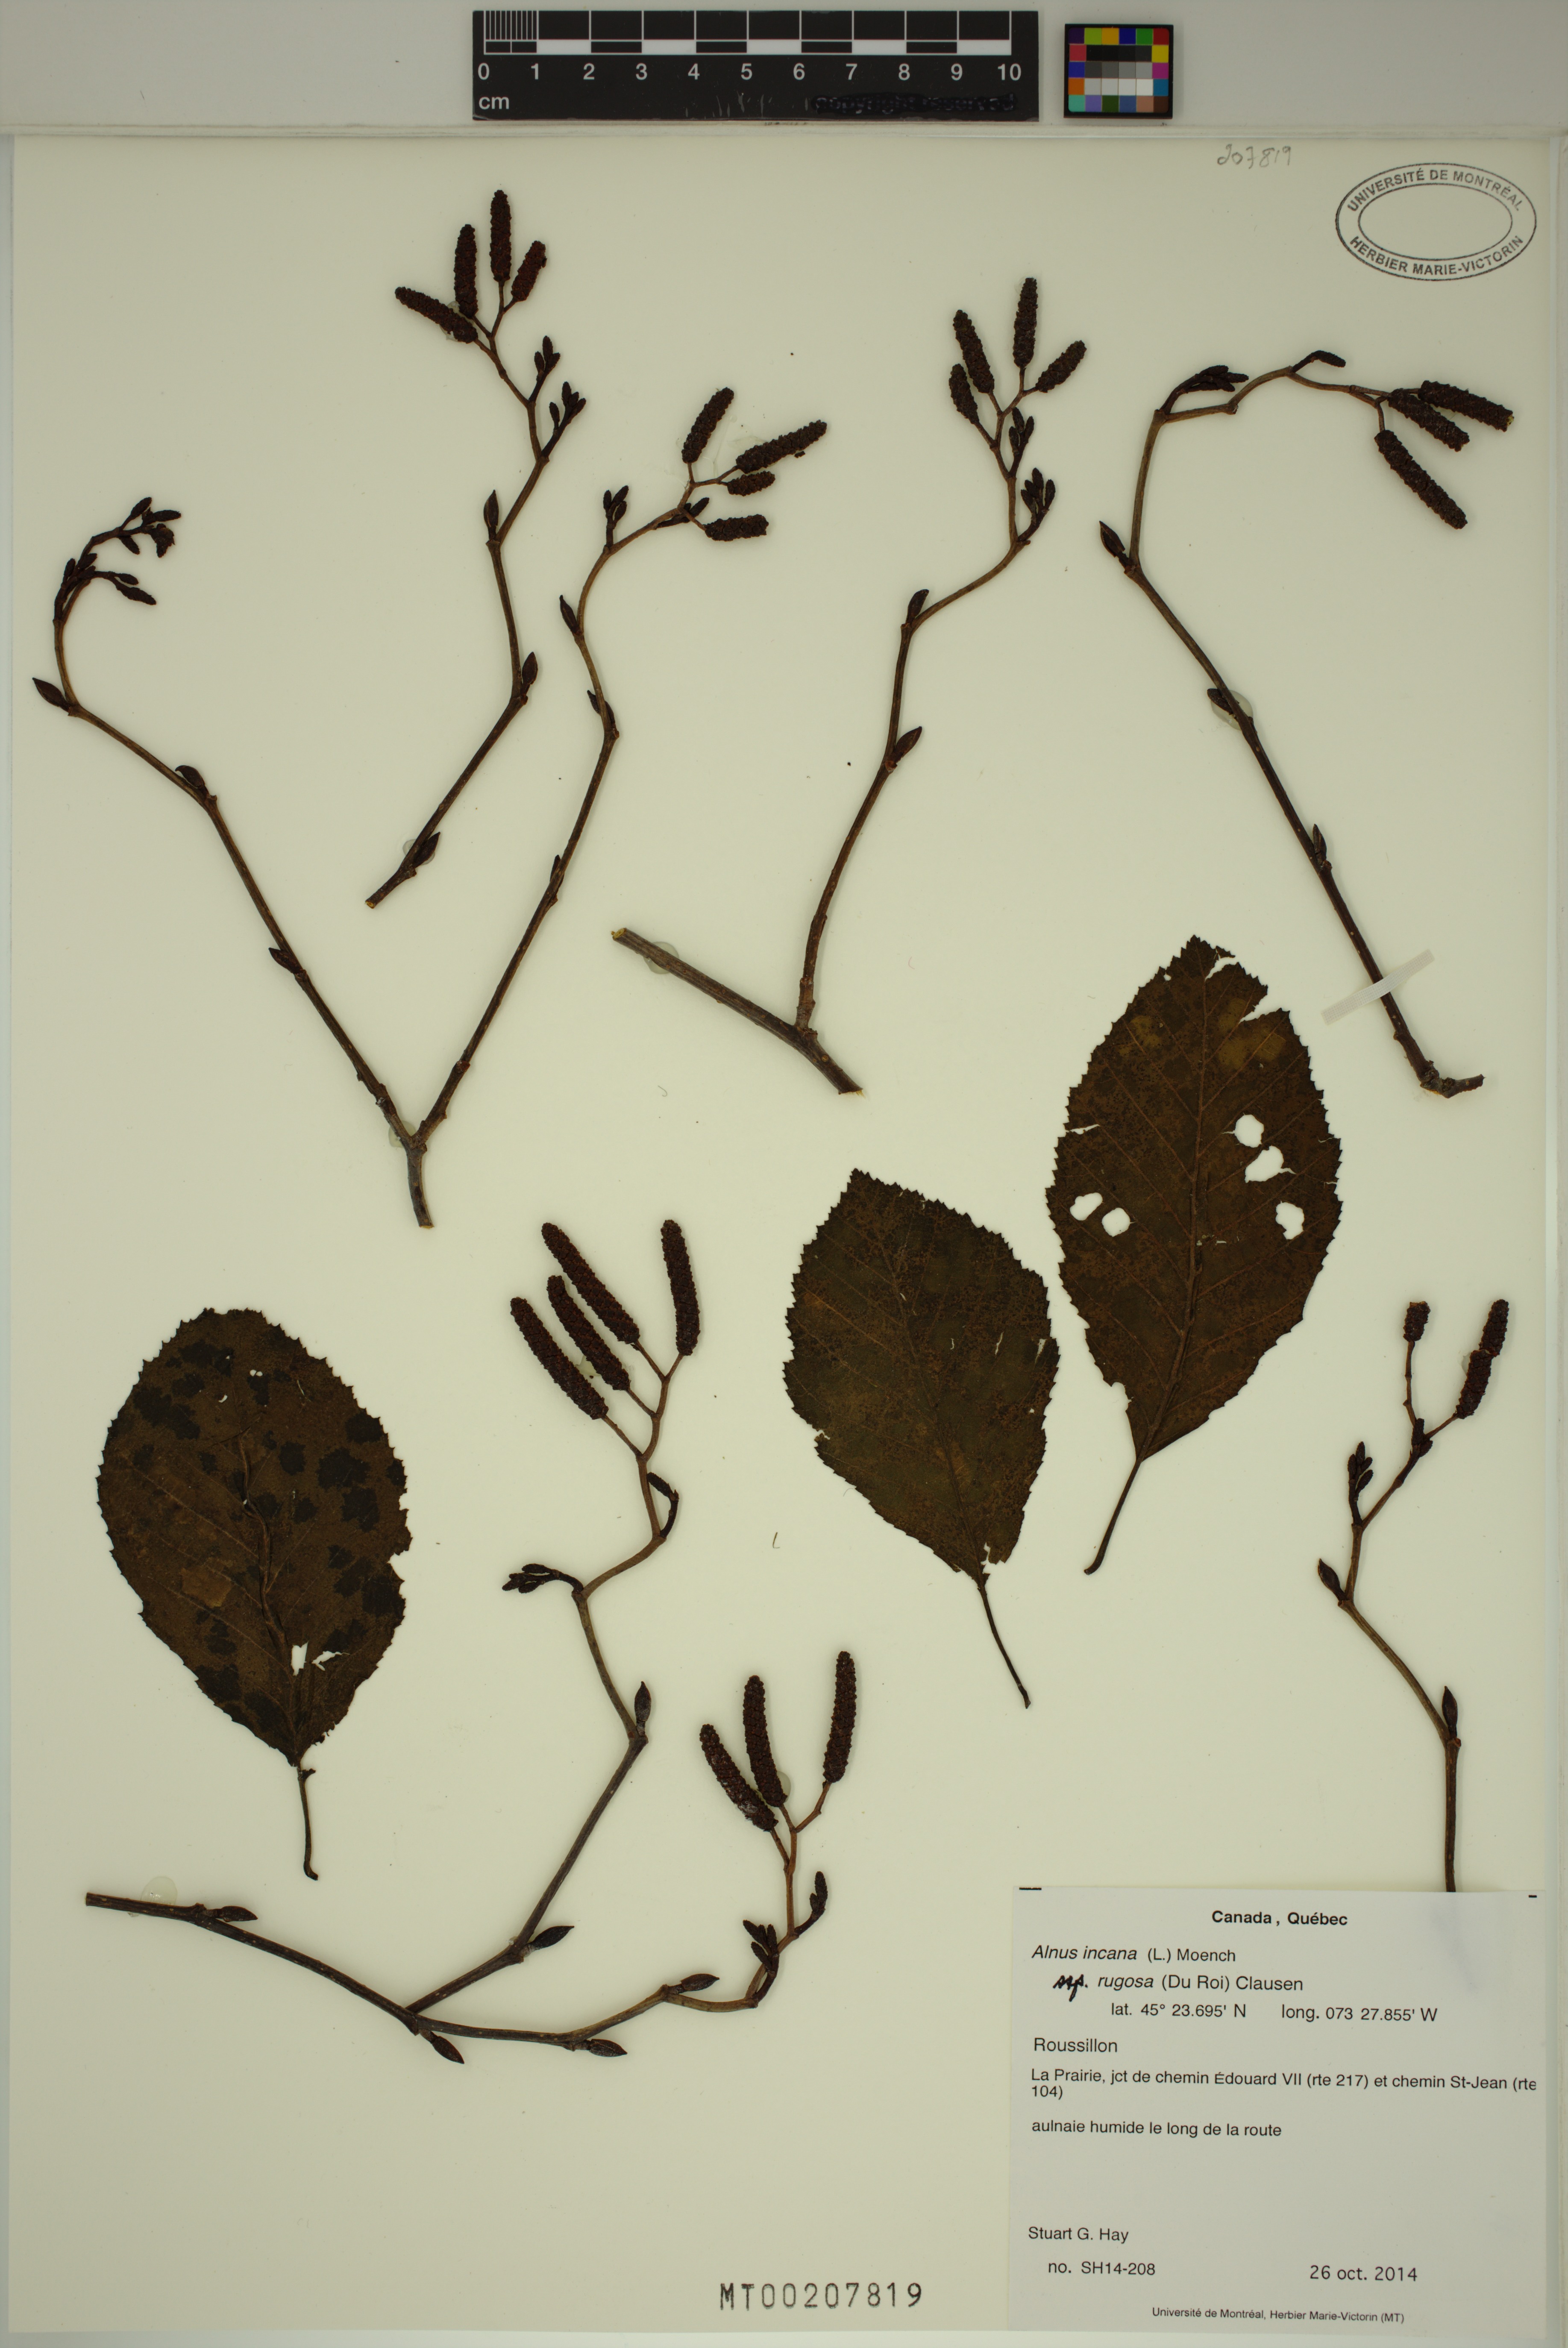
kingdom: Plantae
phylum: Tracheophyta
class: Magnoliopsida
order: Fagales
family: Betulaceae
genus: Alnus
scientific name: Alnus incana
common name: Grey alder
